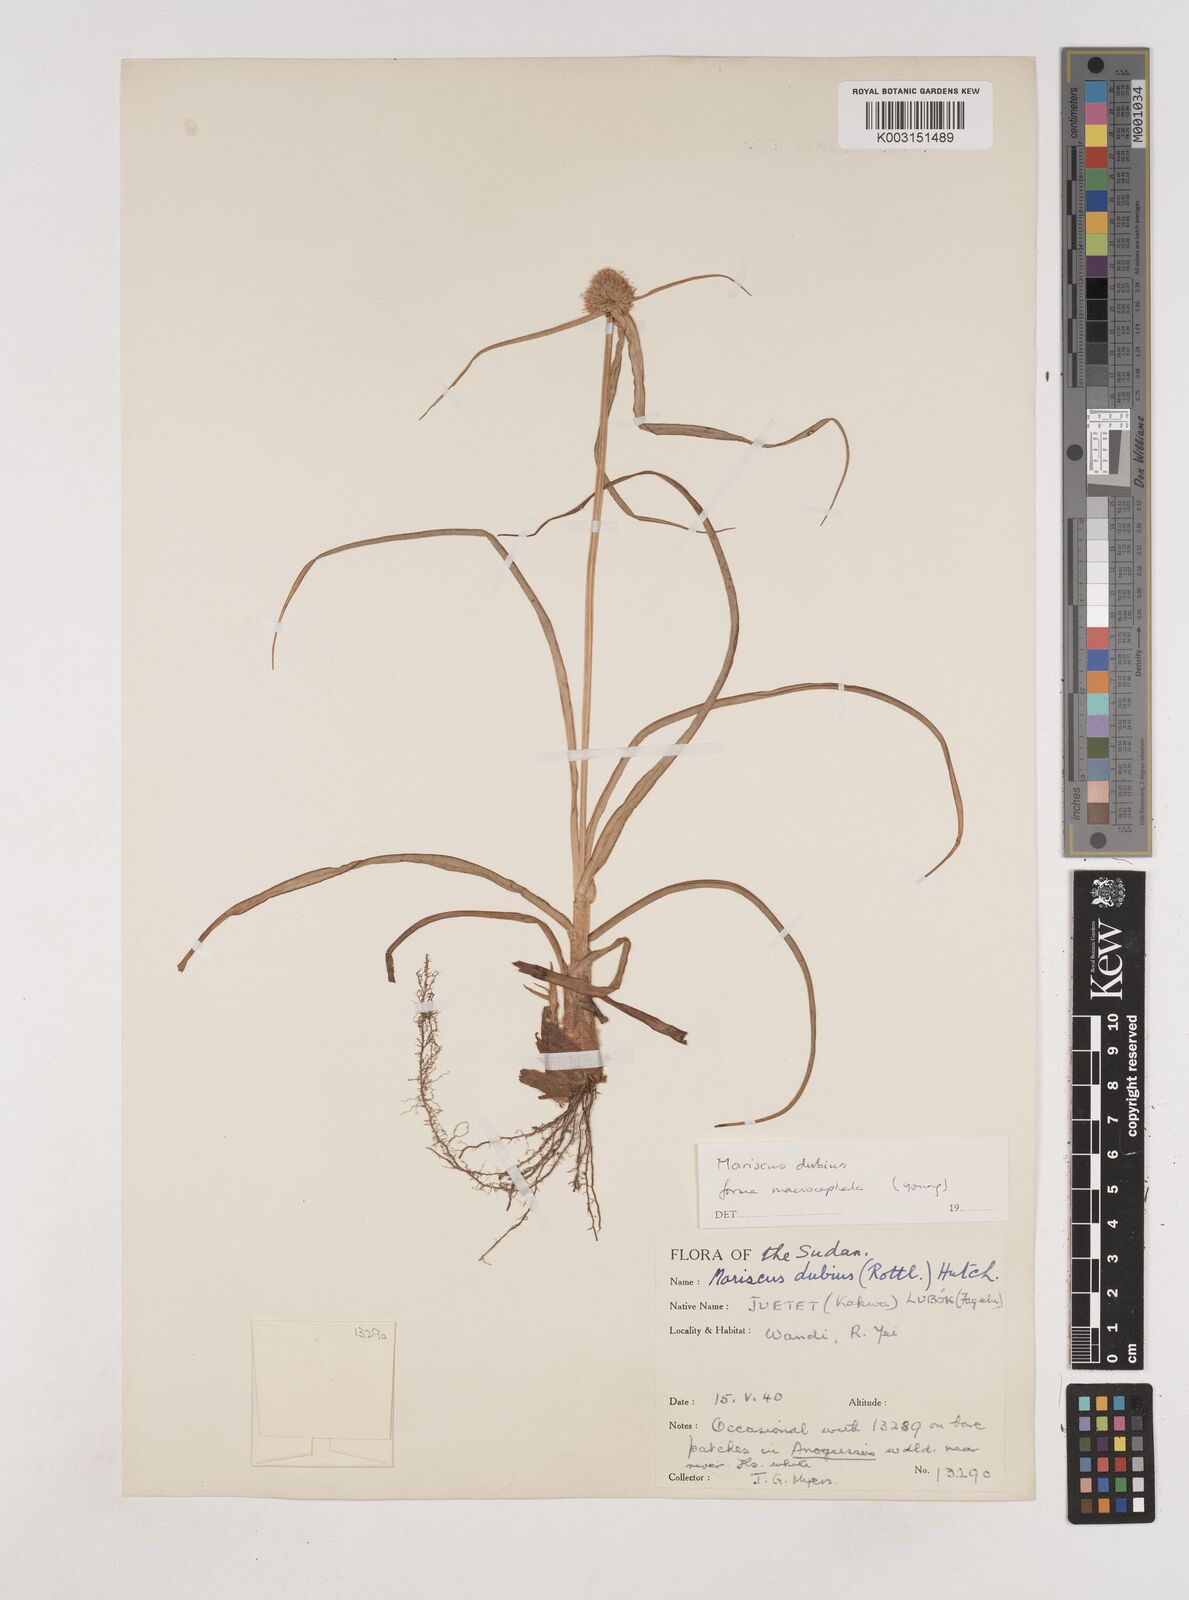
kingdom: Plantae
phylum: Tracheophyta
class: Liliopsida
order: Poales
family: Cyperaceae
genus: Cyperus
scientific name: Cyperus dubius
